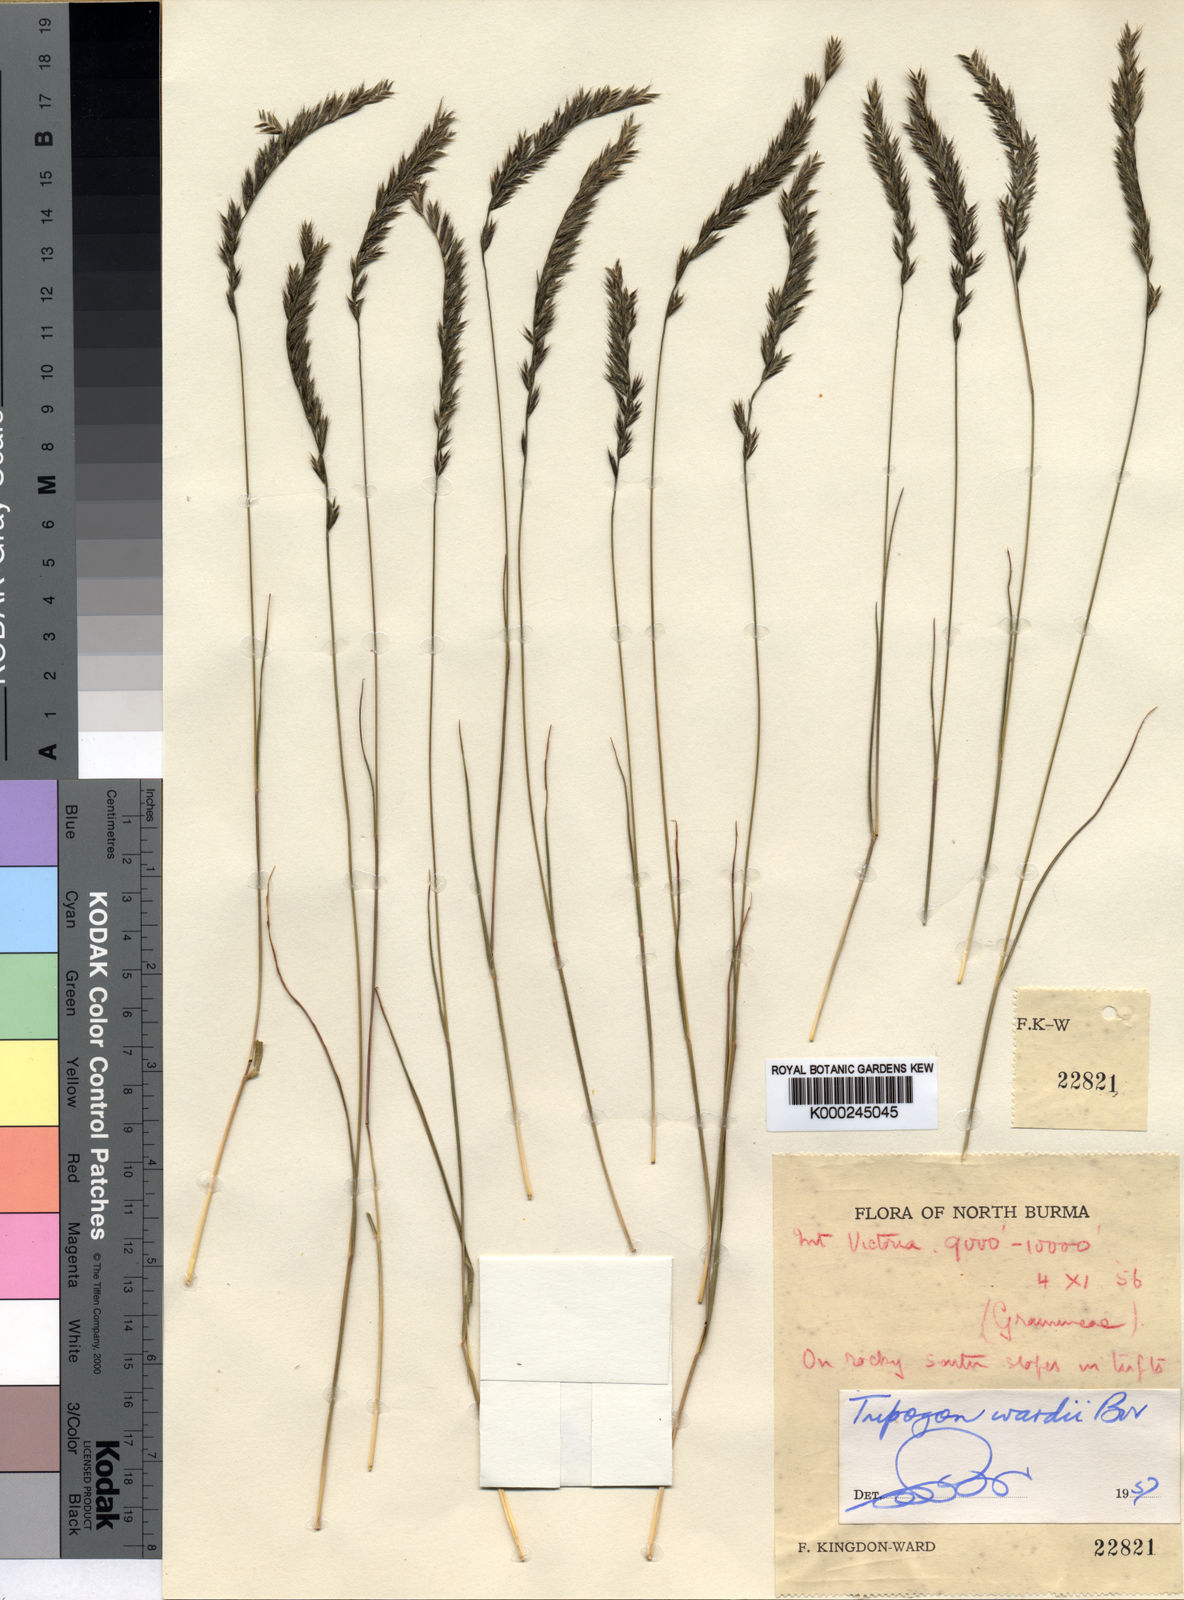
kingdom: Plantae
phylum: Tracheophyta
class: Liliopsida
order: Poales
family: Poaceae
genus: Tripogon
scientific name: Tripogon wardii
